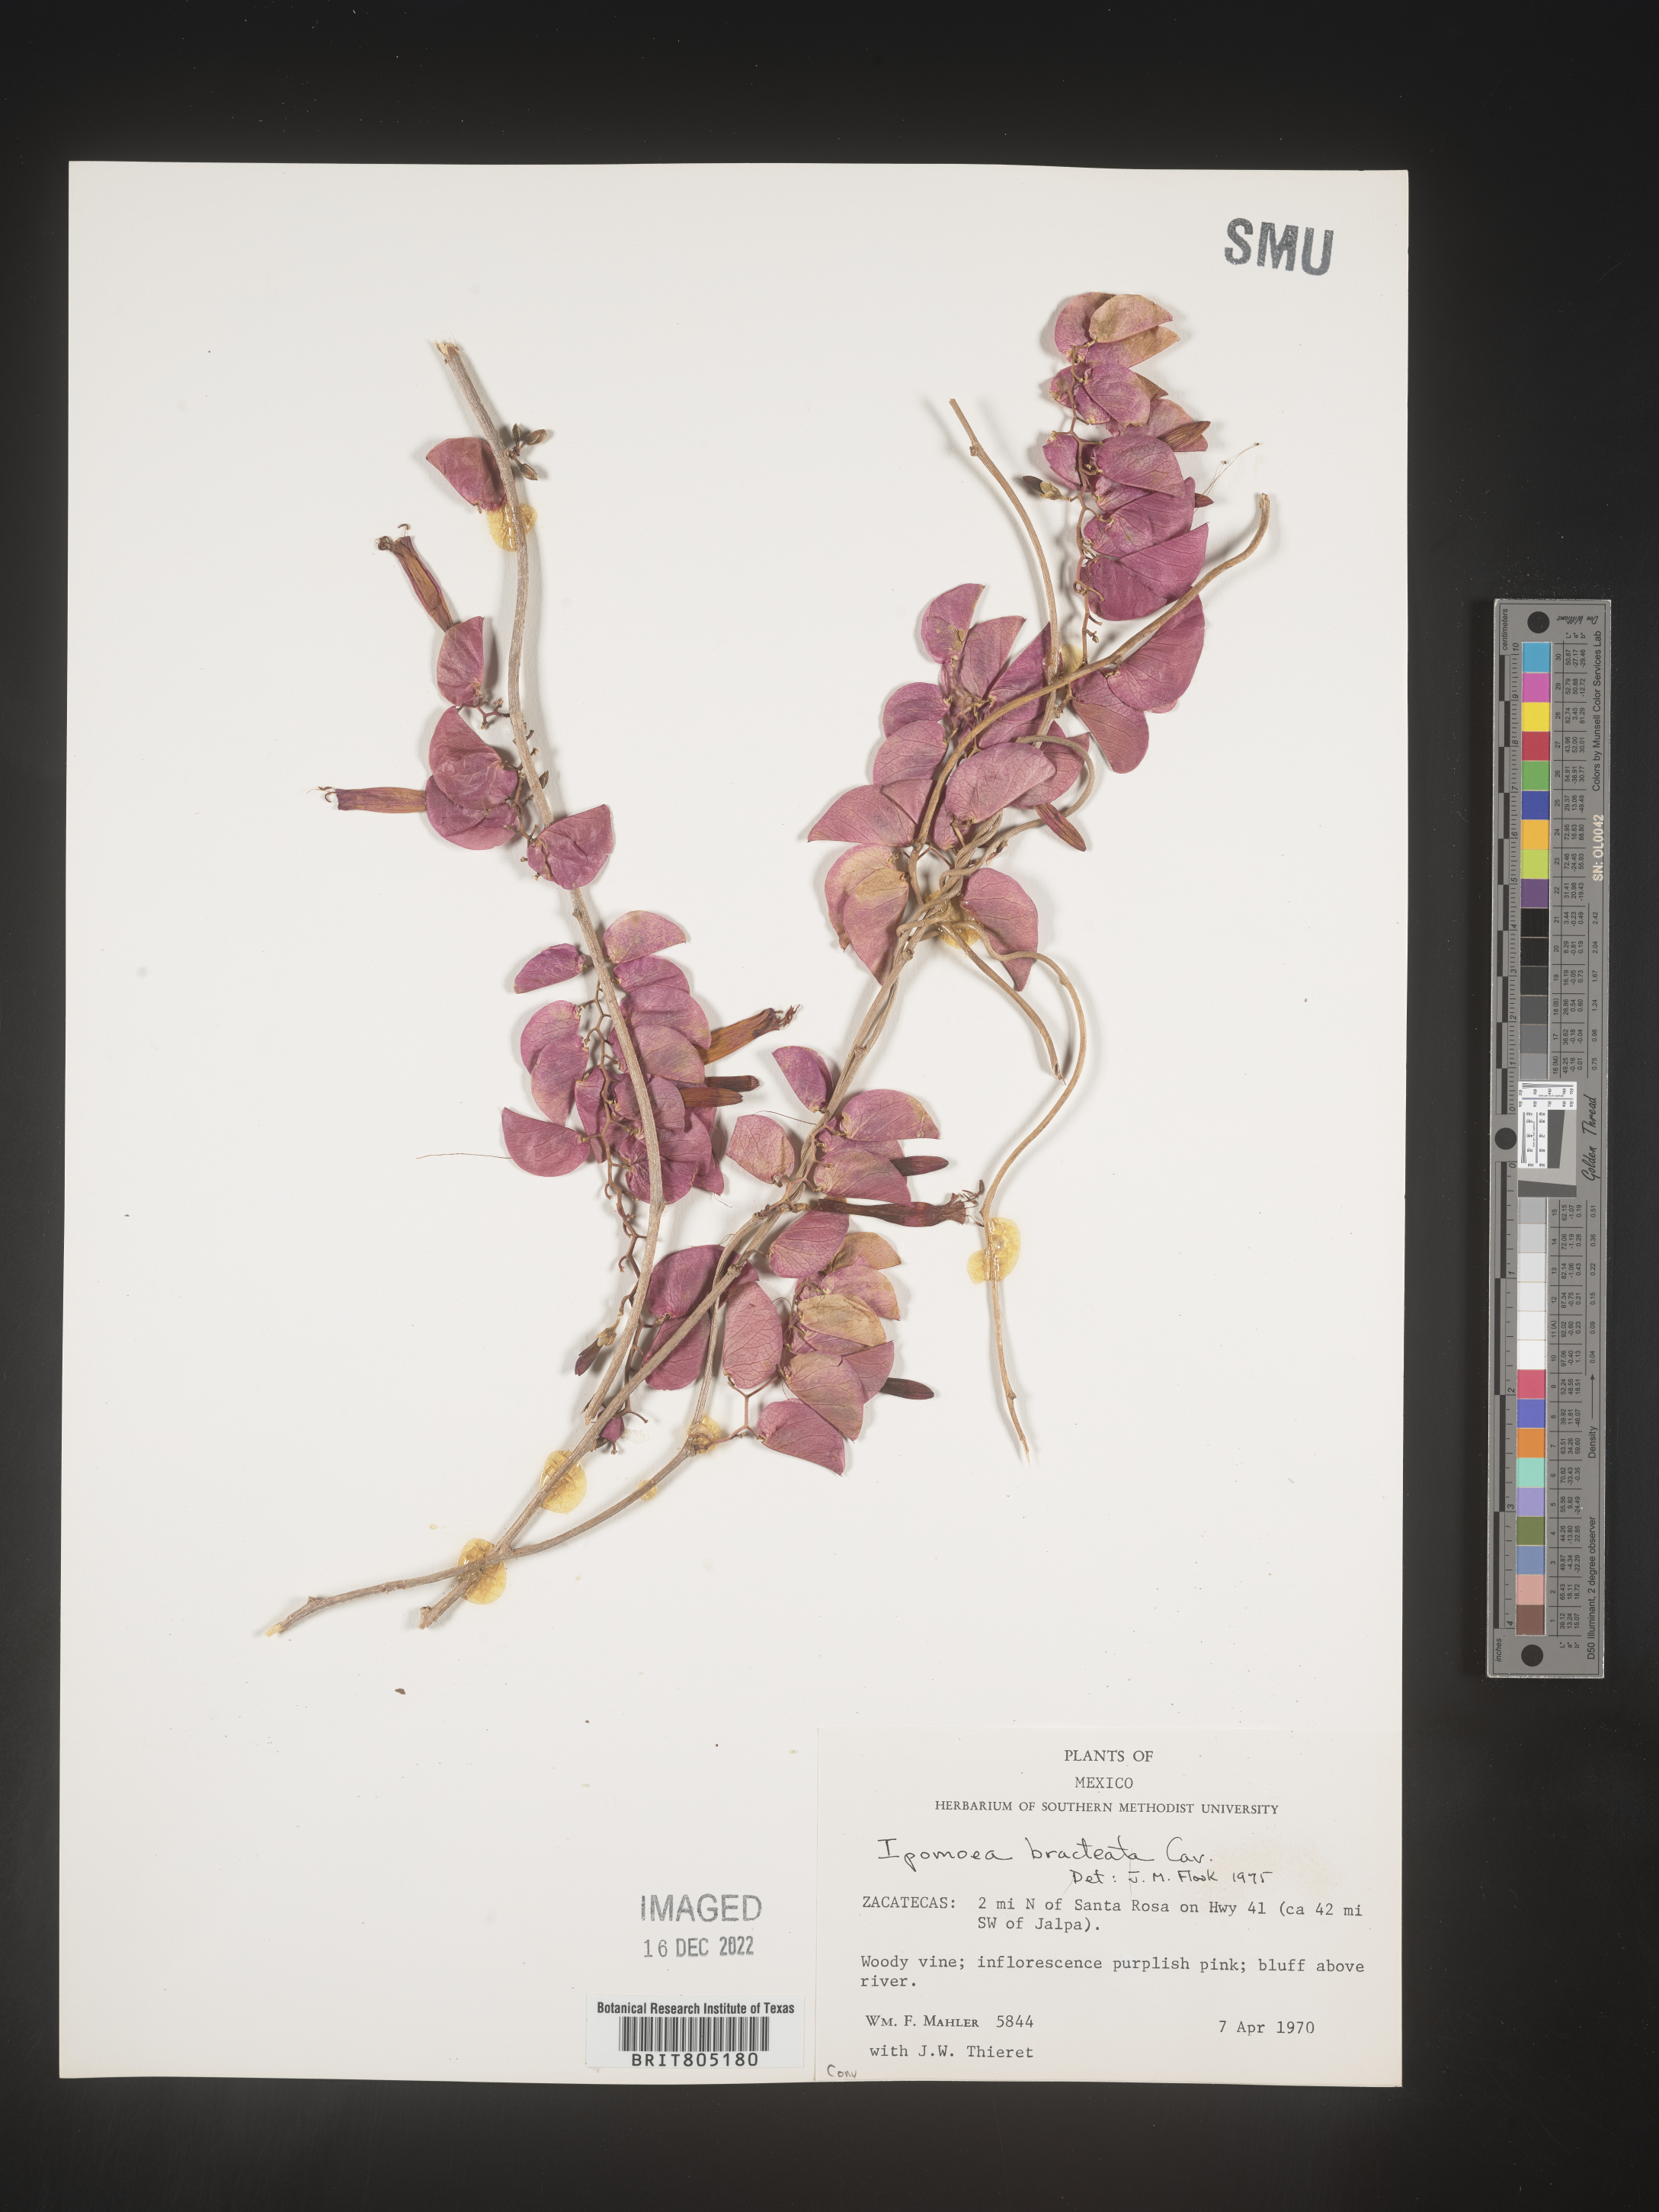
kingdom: Plantae
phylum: Tracheophyta
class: Magnoliopsida
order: Solanales
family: Convolvulaceae
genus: Ipomoea
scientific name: Ipomoea
